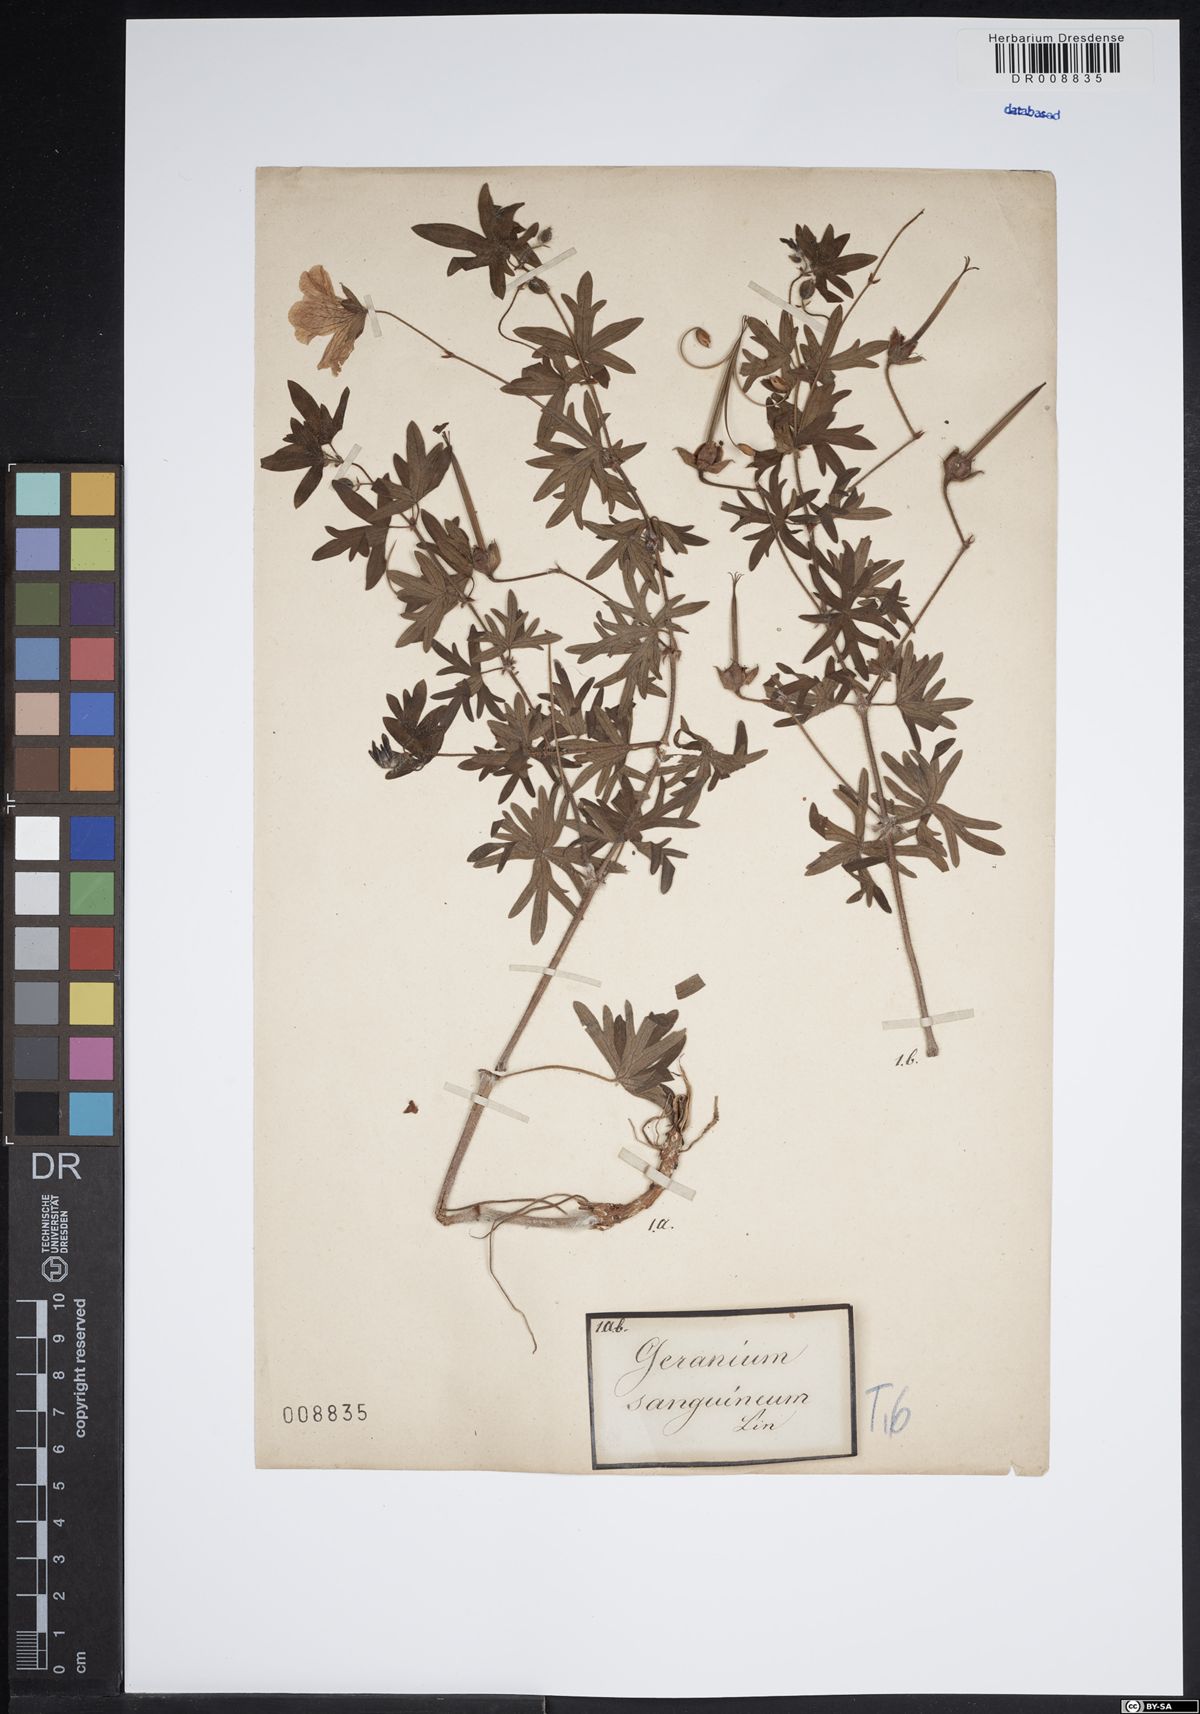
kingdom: Plantae
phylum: Tracheophyta
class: Magnoliopsida
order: Geraniales
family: Geraniaceae
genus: Geranium
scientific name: Geranium sanguineum
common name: Bloody crane's-bill
